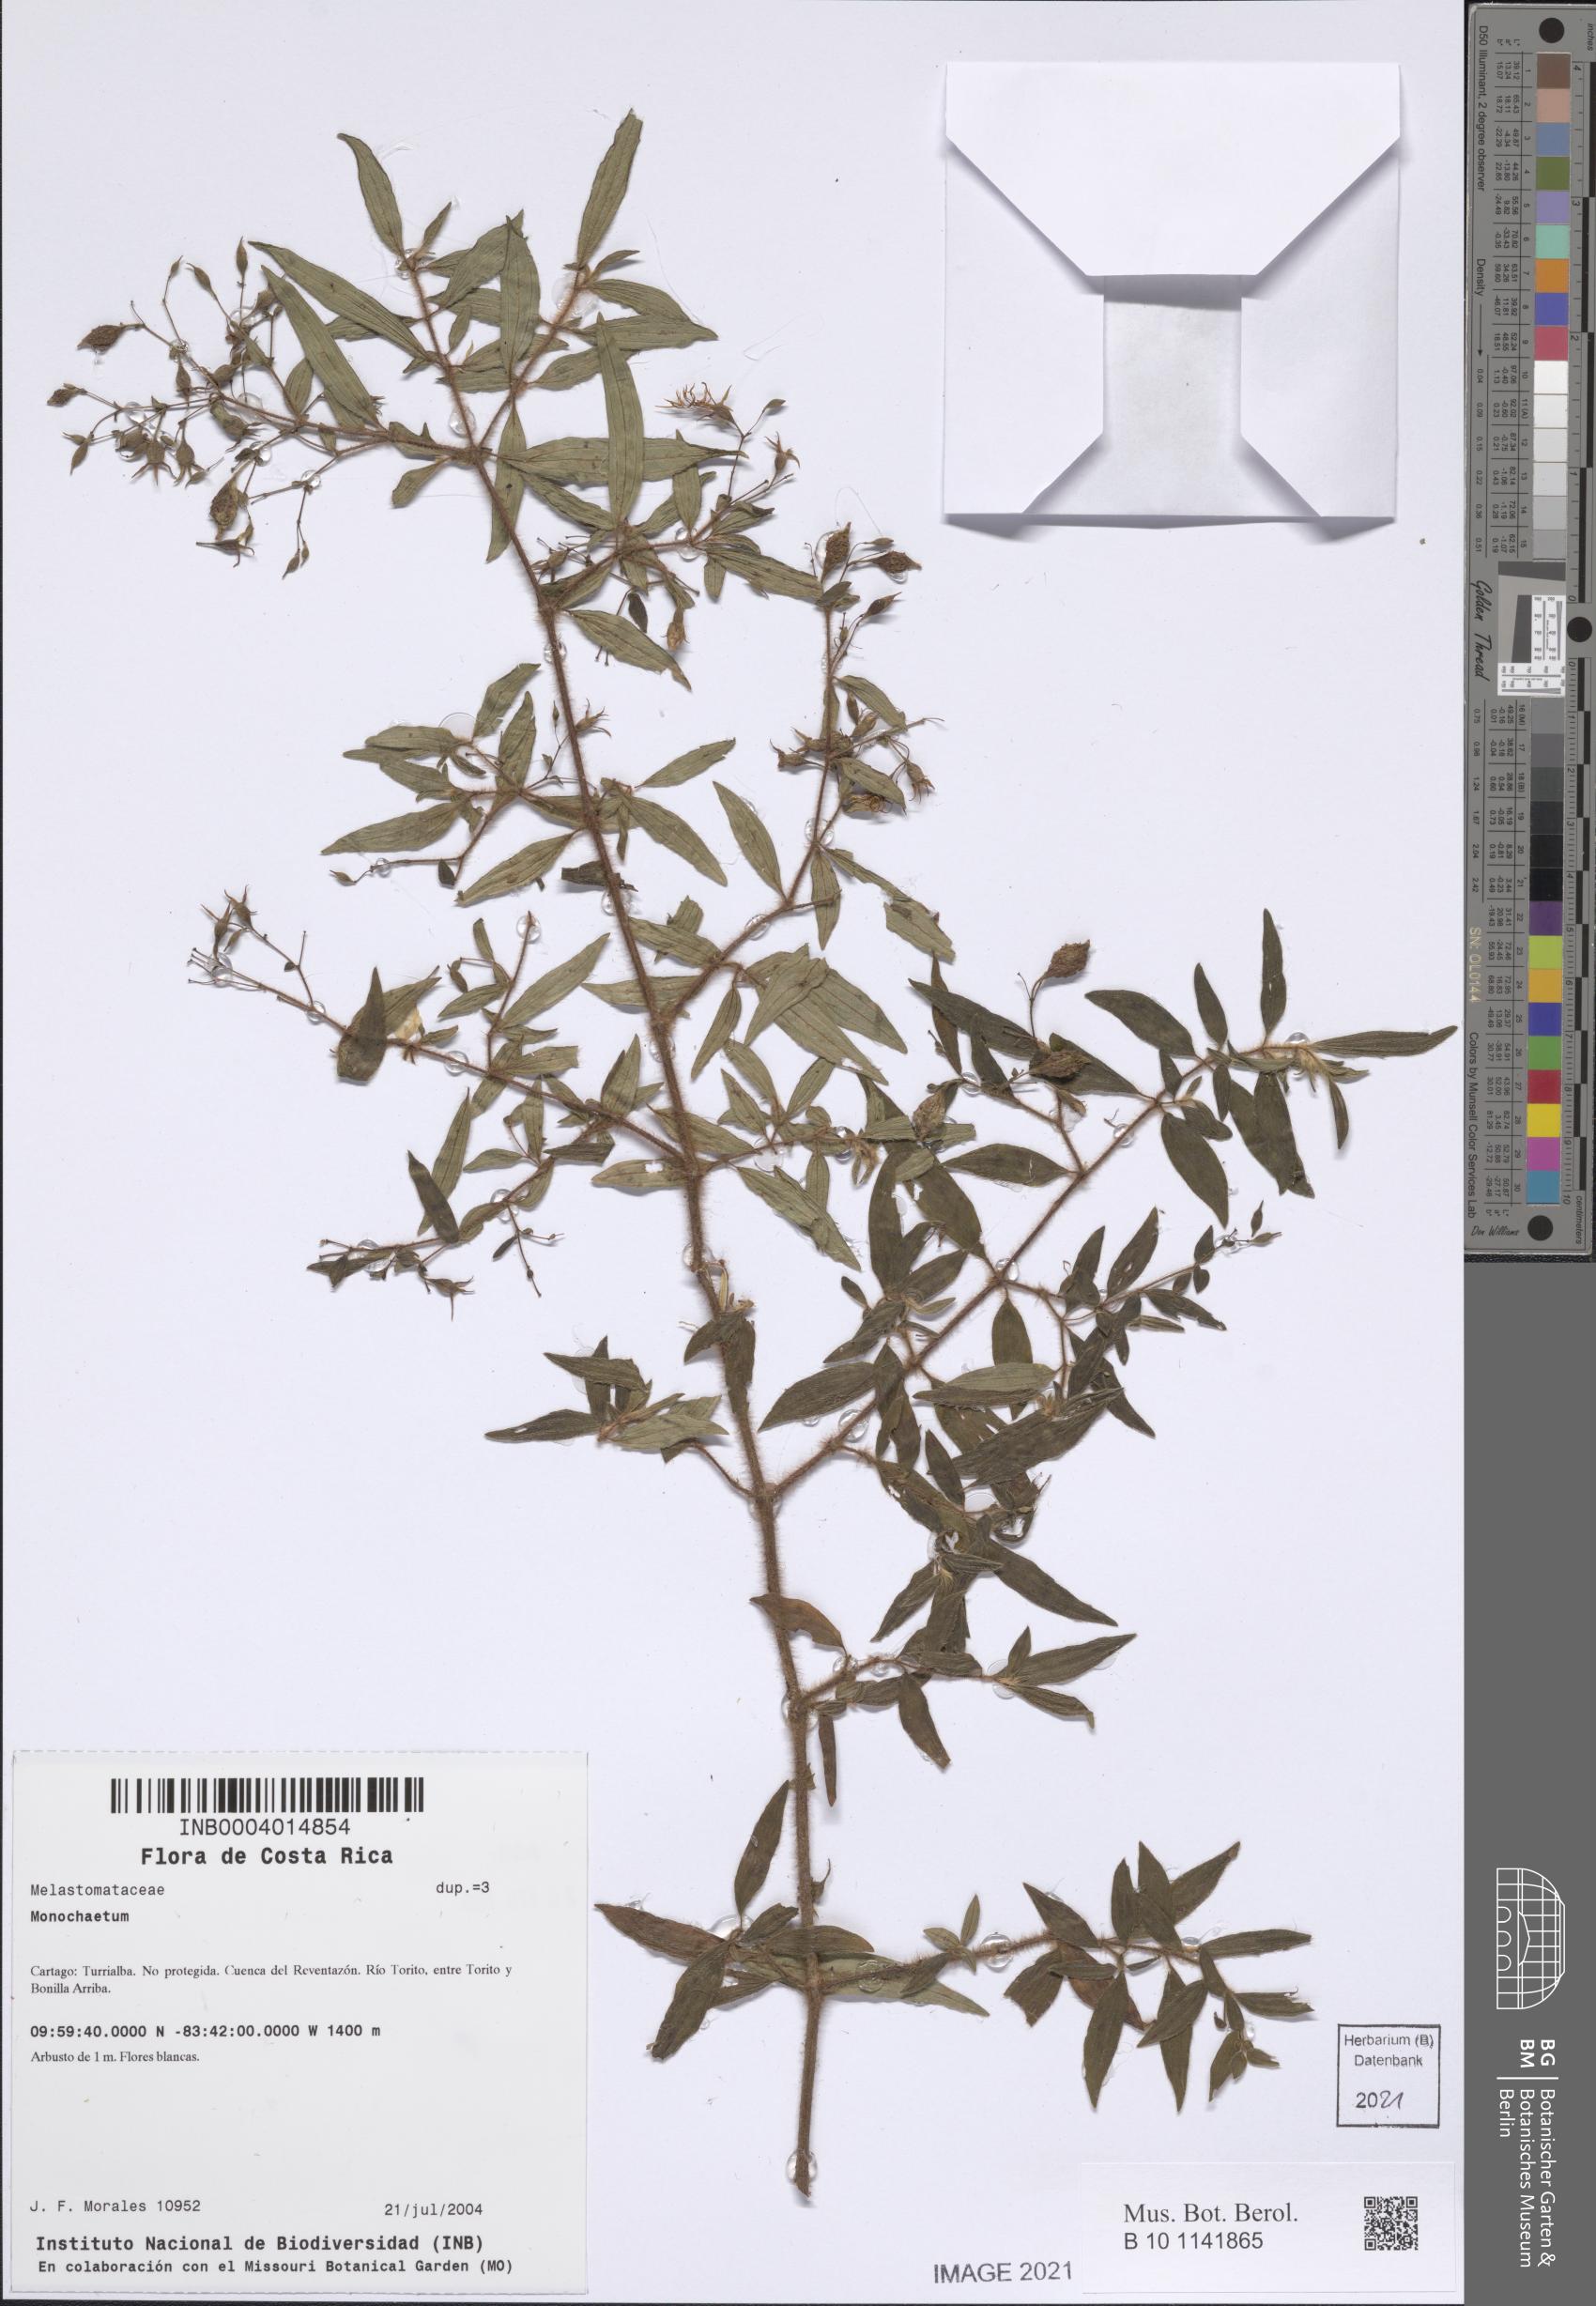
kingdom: Plantae
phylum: Tracheophyta
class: Magnoliopsida
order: Myrtales
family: Melastomataceae
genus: Monochaetum
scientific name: Monochaetum
